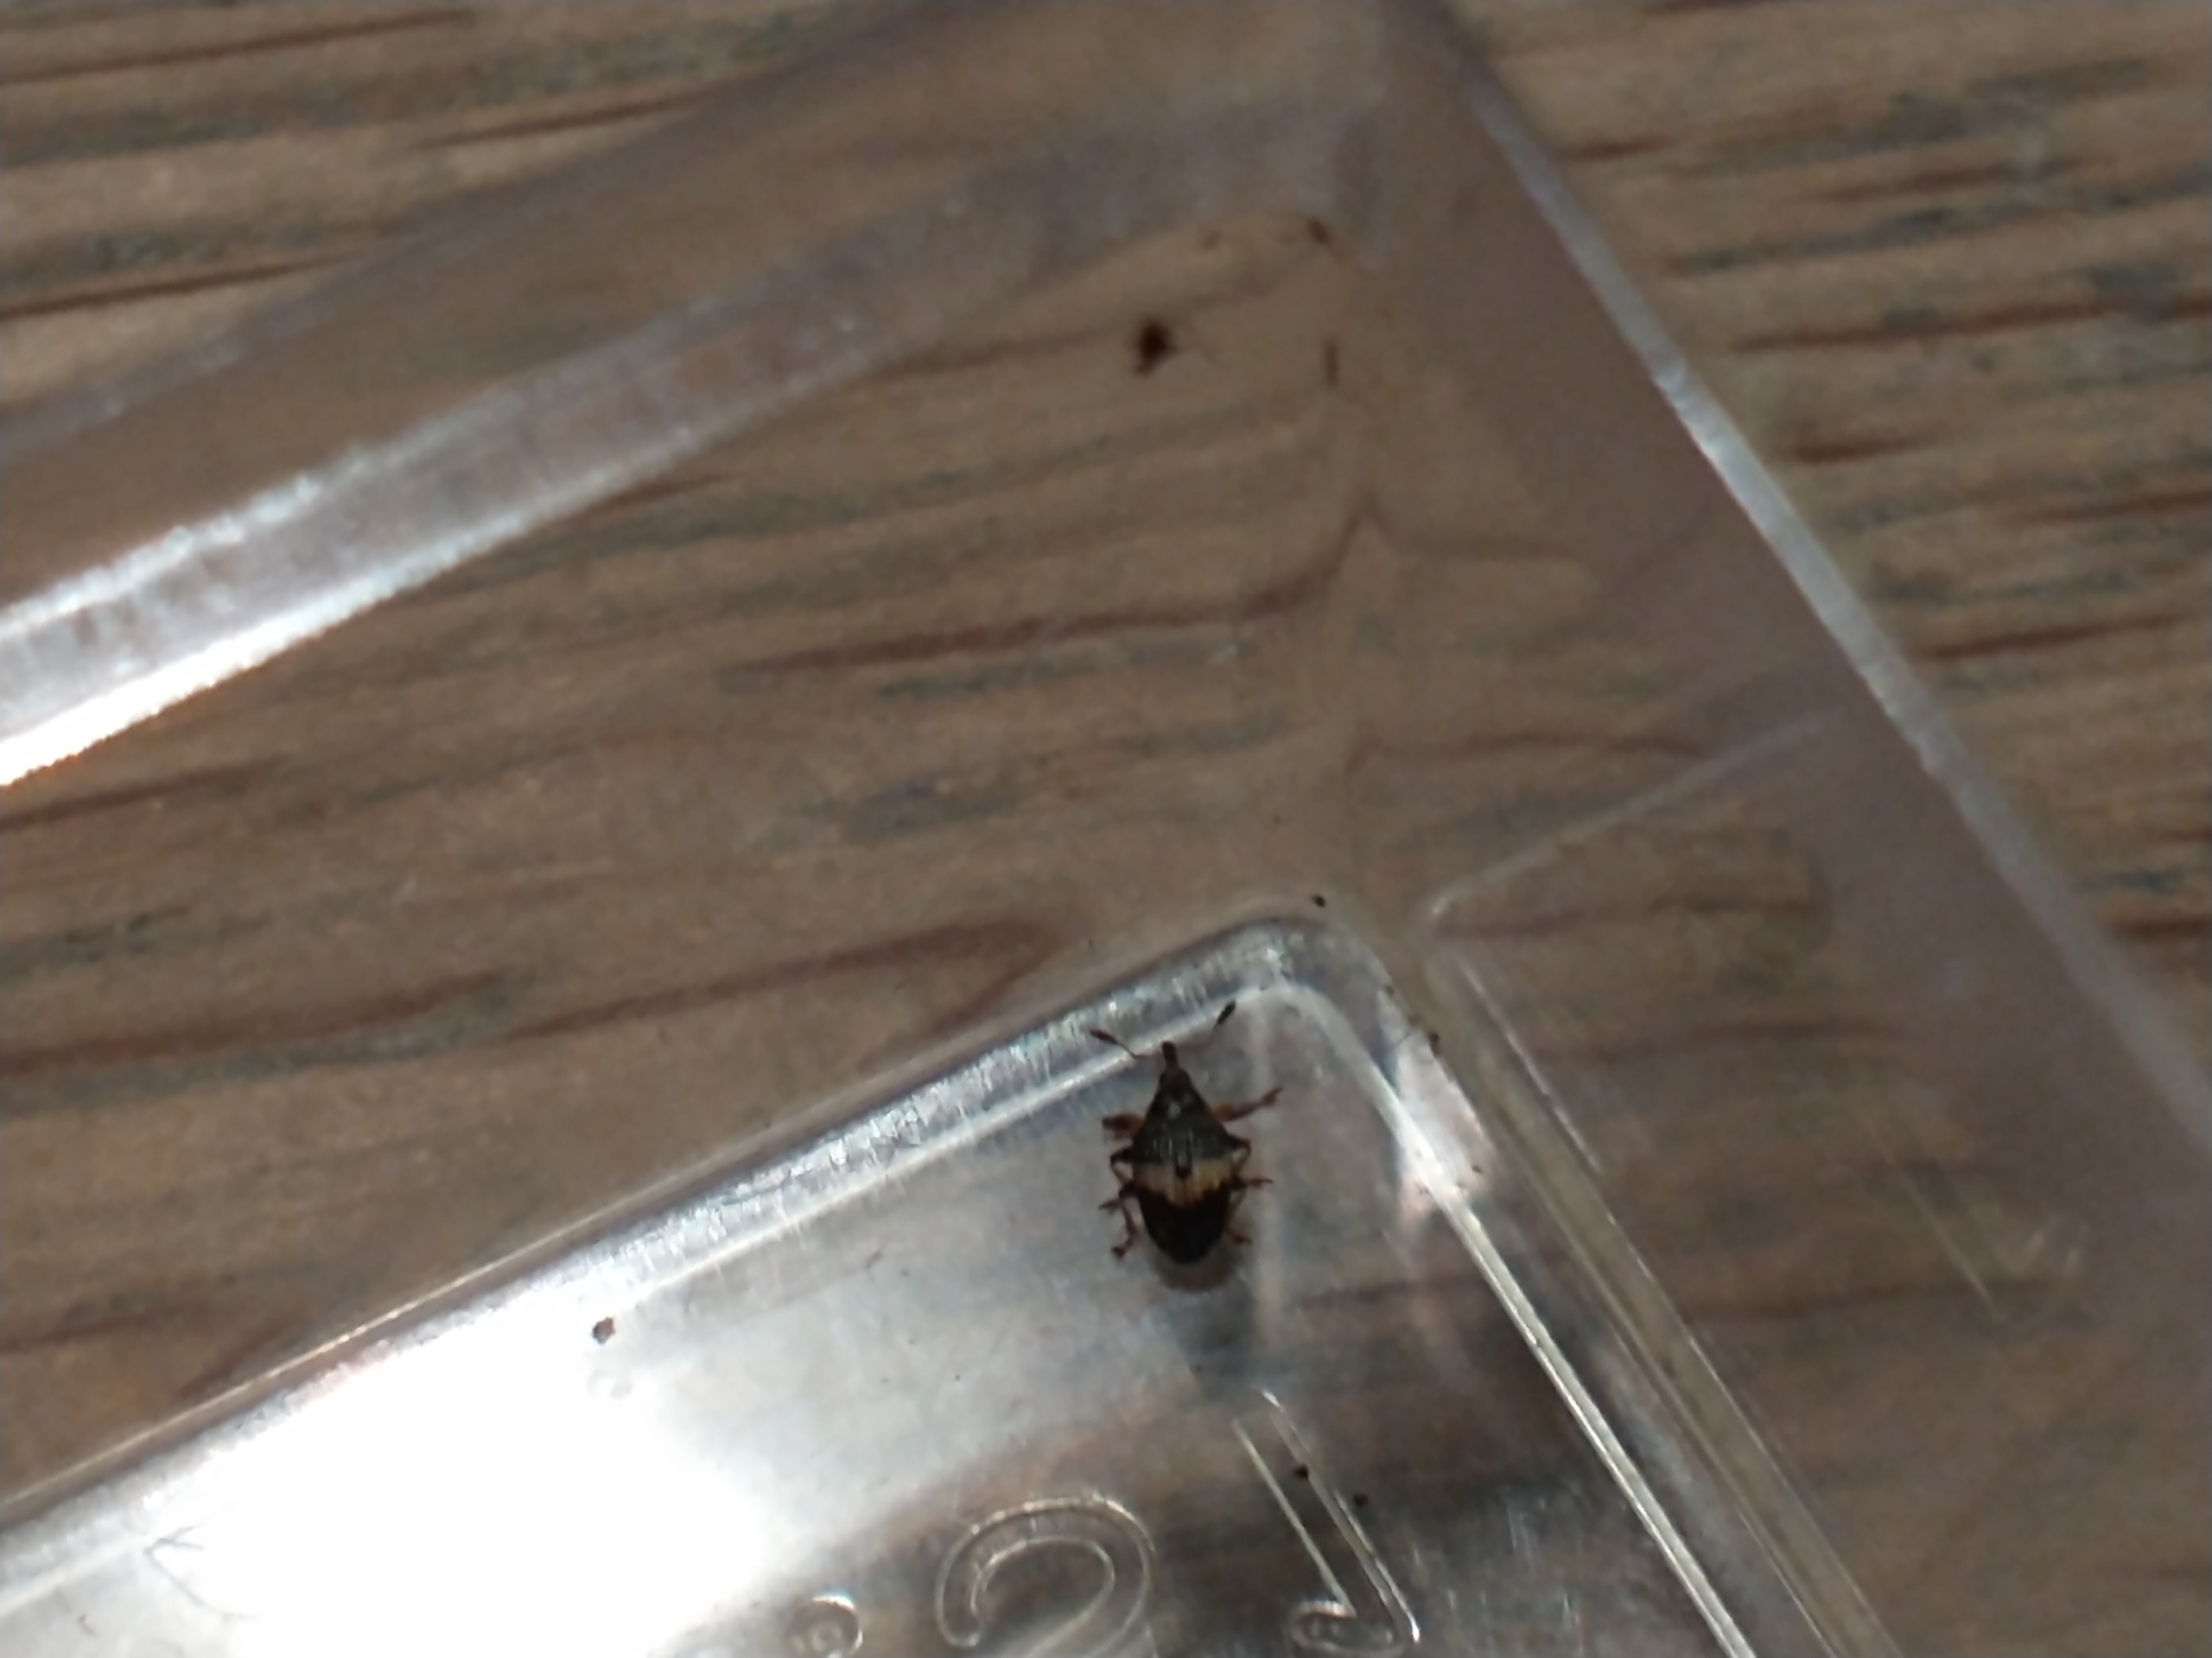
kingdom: Animalia
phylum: Arthropoda
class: Insecta
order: Coleoptera
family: Brentidae
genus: Nanophyes
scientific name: Nanophyes marmoratus
